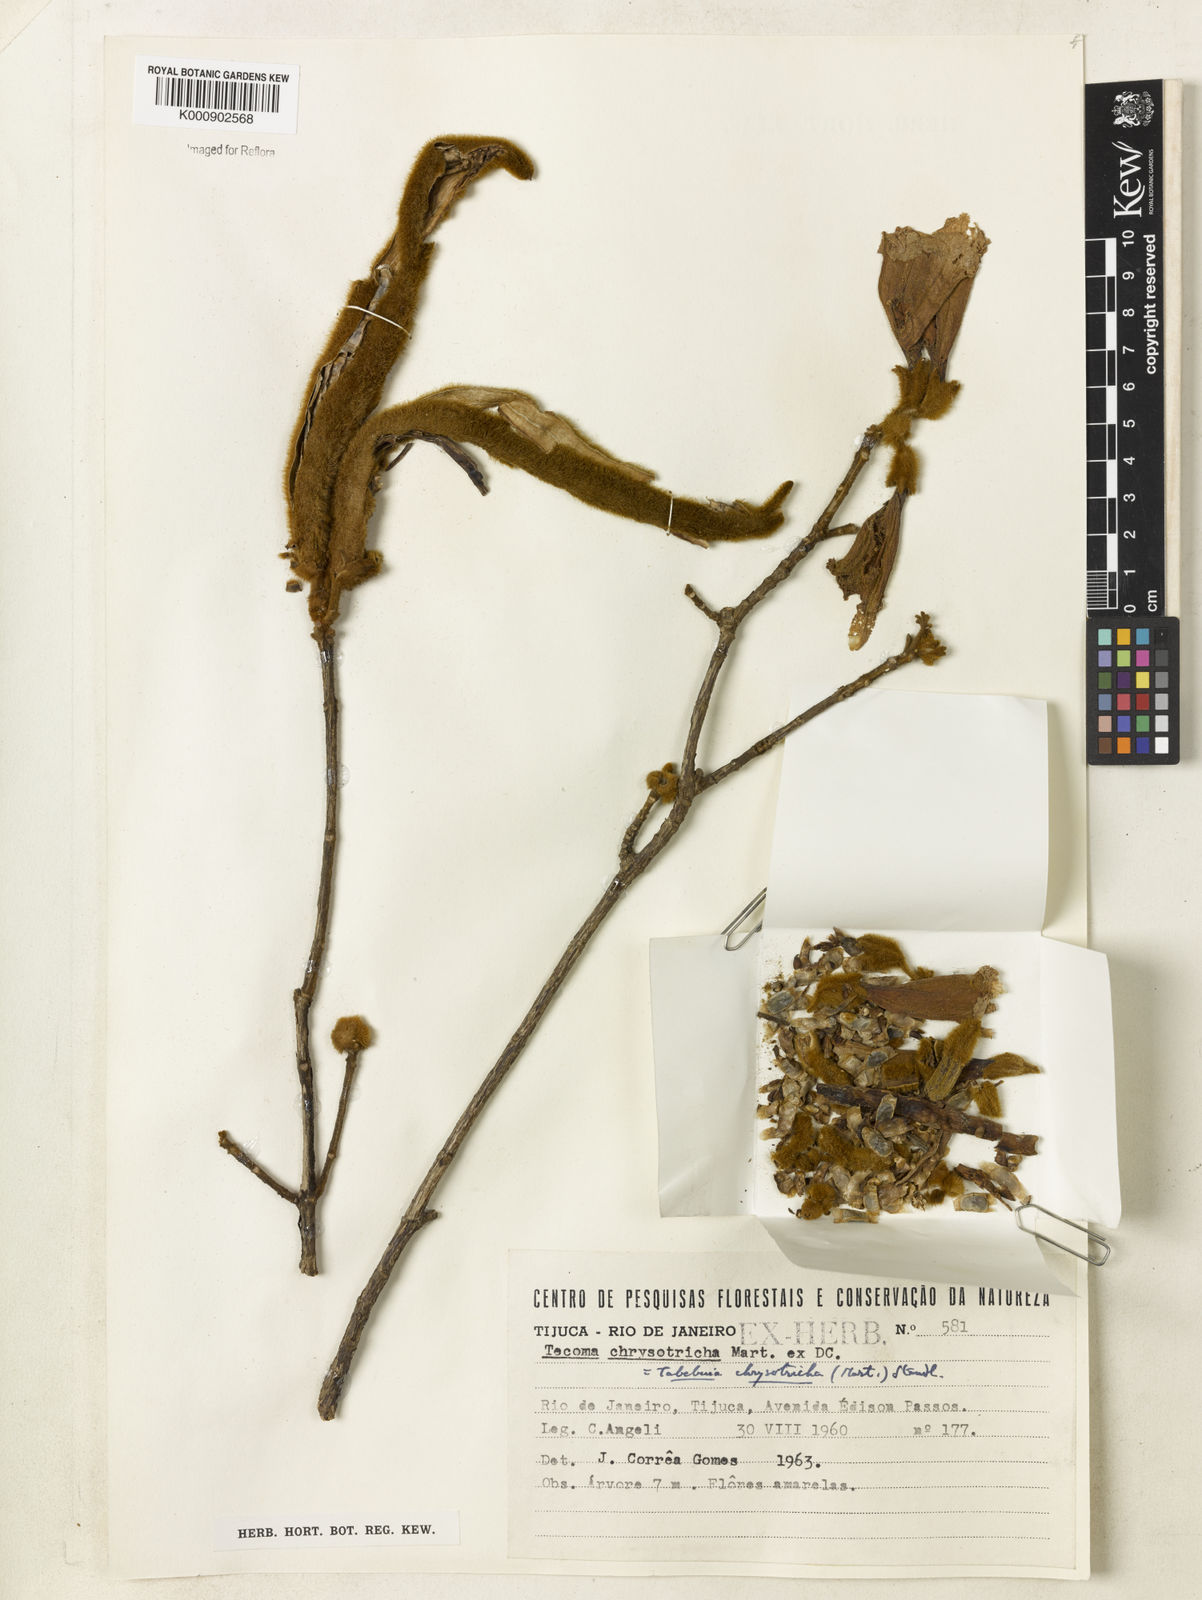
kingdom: Plantae
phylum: Tracheophyta
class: Magnoliopsida
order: Lamiales
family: Bignoniaceae
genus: Handroanthus
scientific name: Handroanthus chrysotrichus
